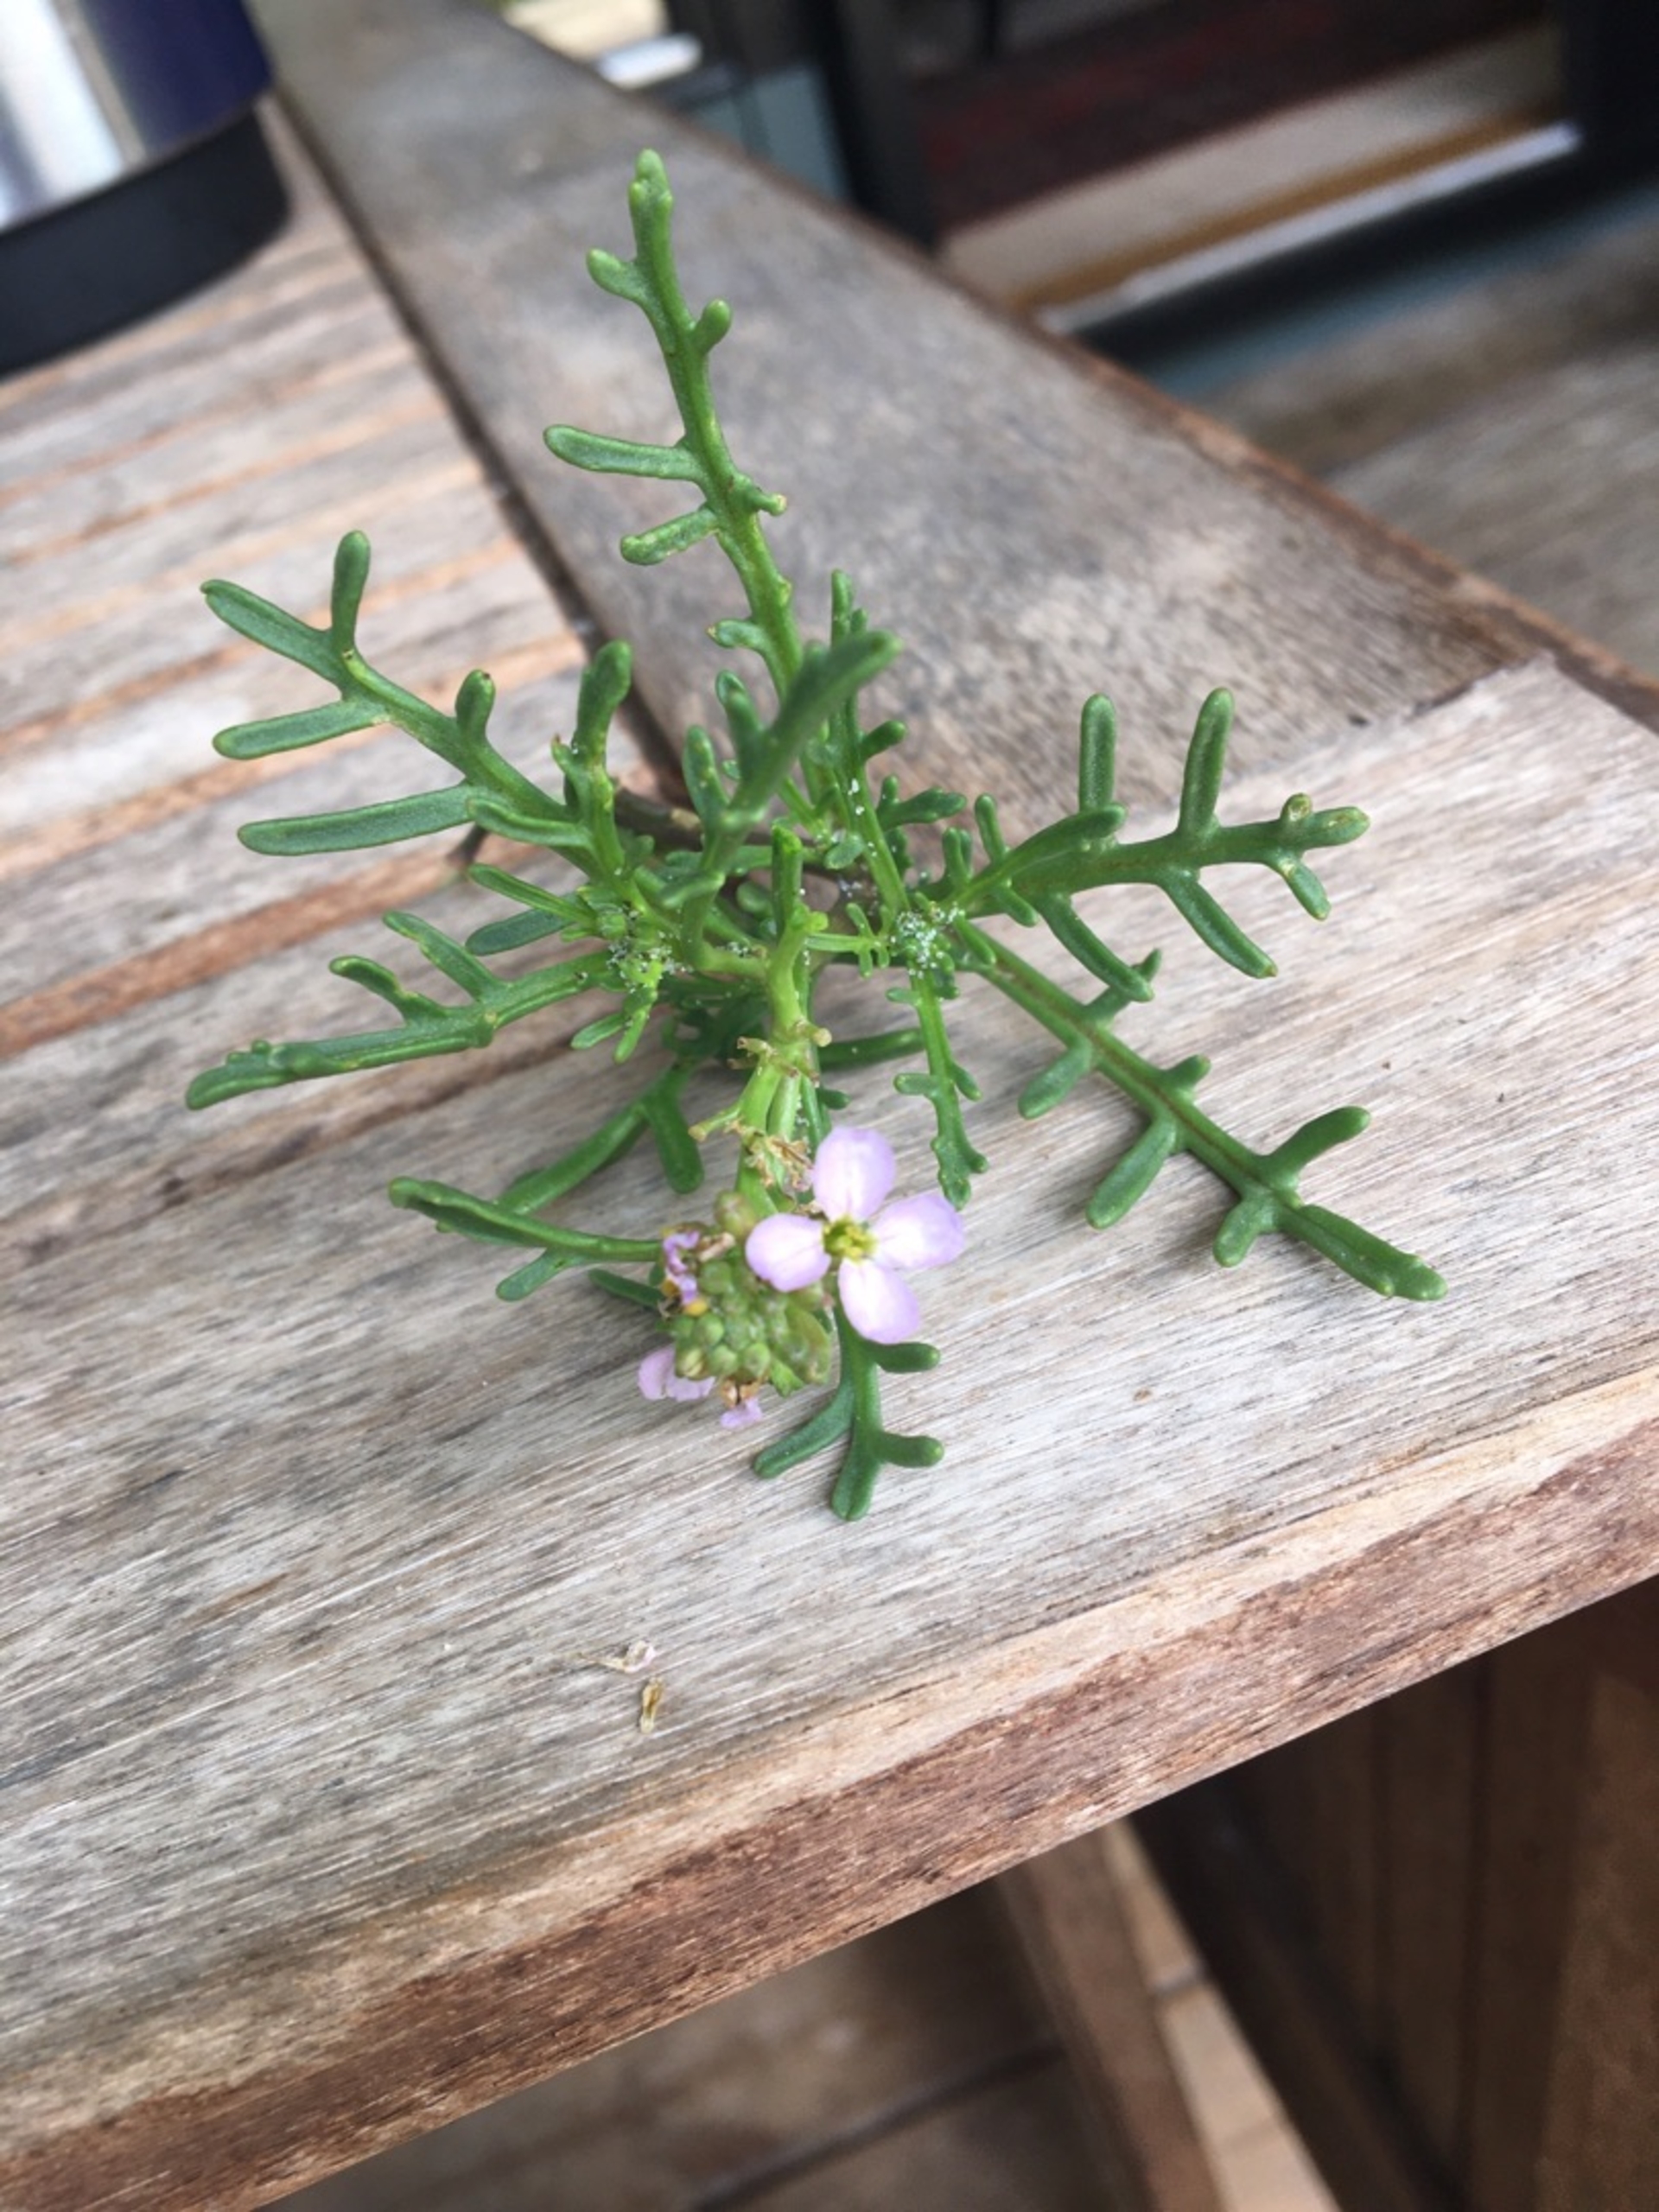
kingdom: Plantae
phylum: Tracheophyta
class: Magnoliopsida
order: Brassicales
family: Brassicaceae
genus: Cakile
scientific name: Cakile maritima
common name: Strandsennep
